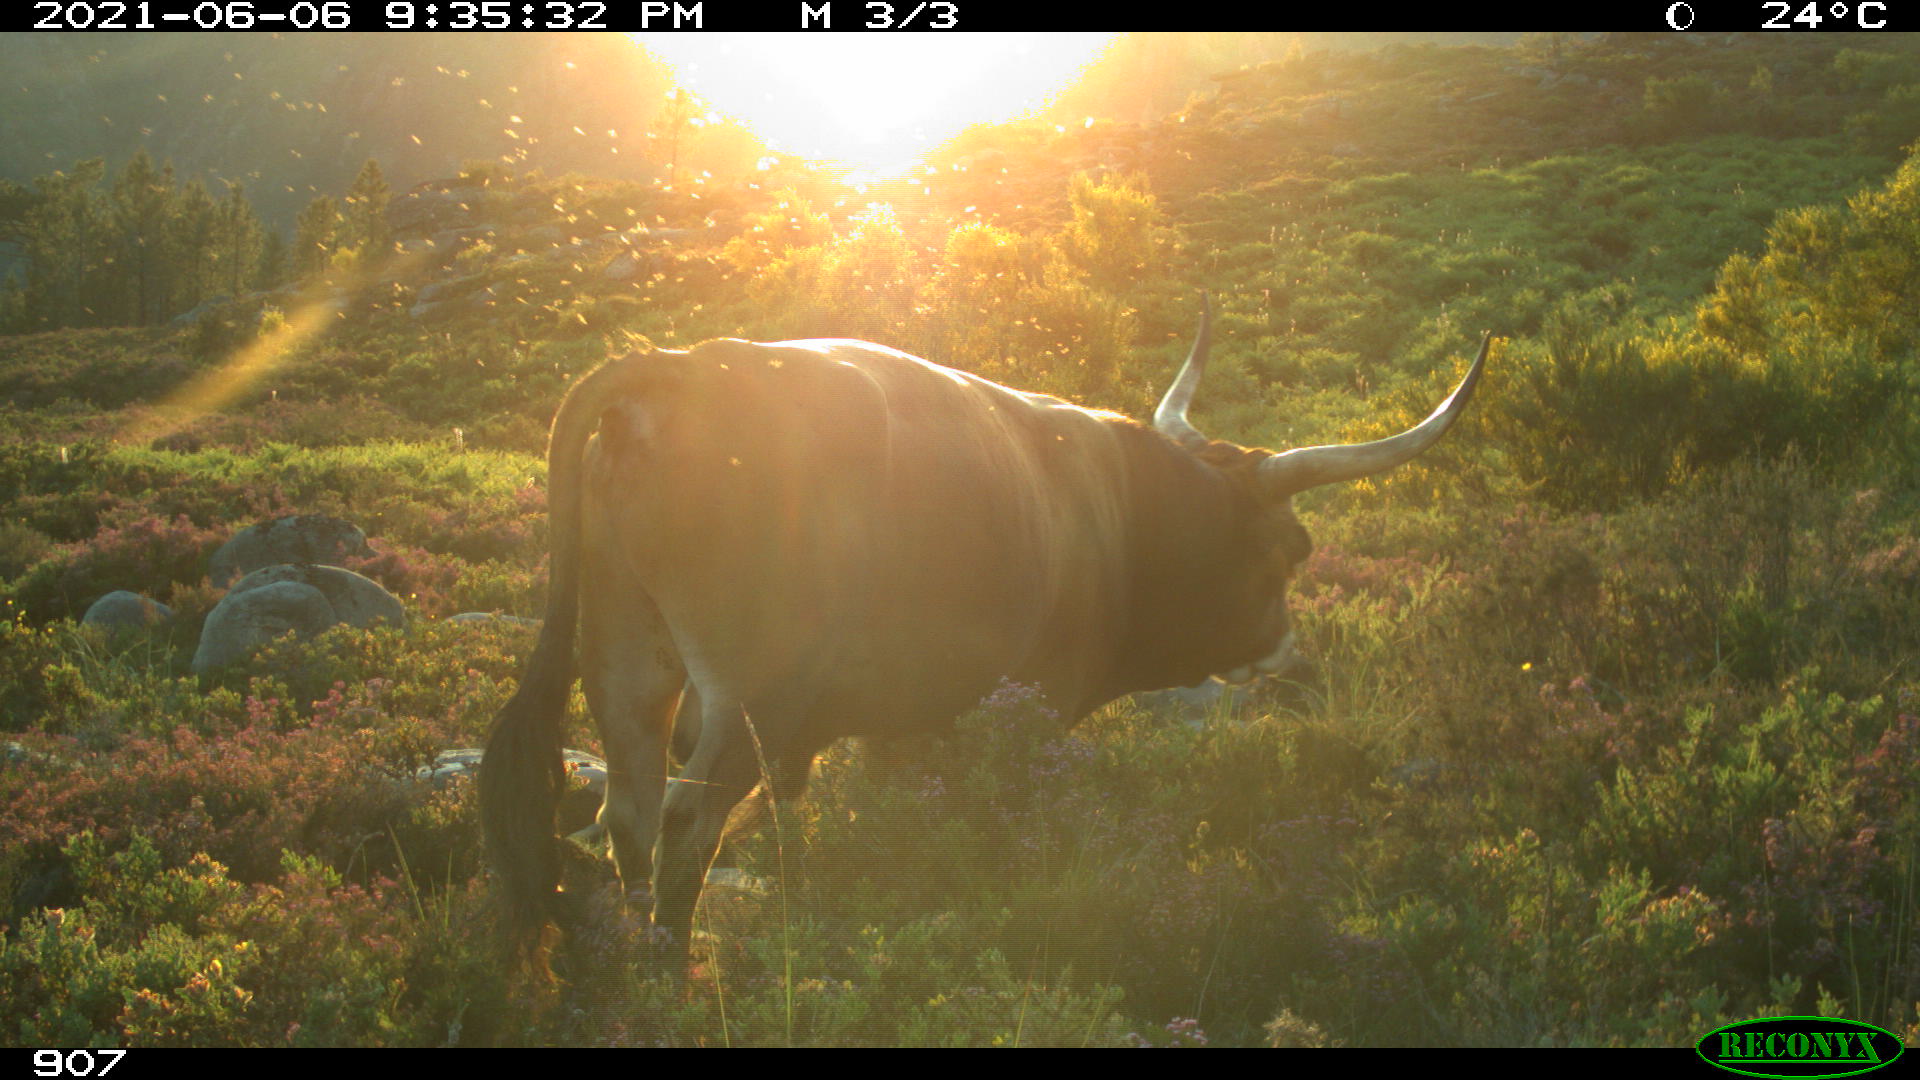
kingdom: Animalia
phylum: Chordata
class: Mammalia
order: Artiodactyla
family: Bovidae
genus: Bos
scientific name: Bos taurus
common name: Domesticated cattle
